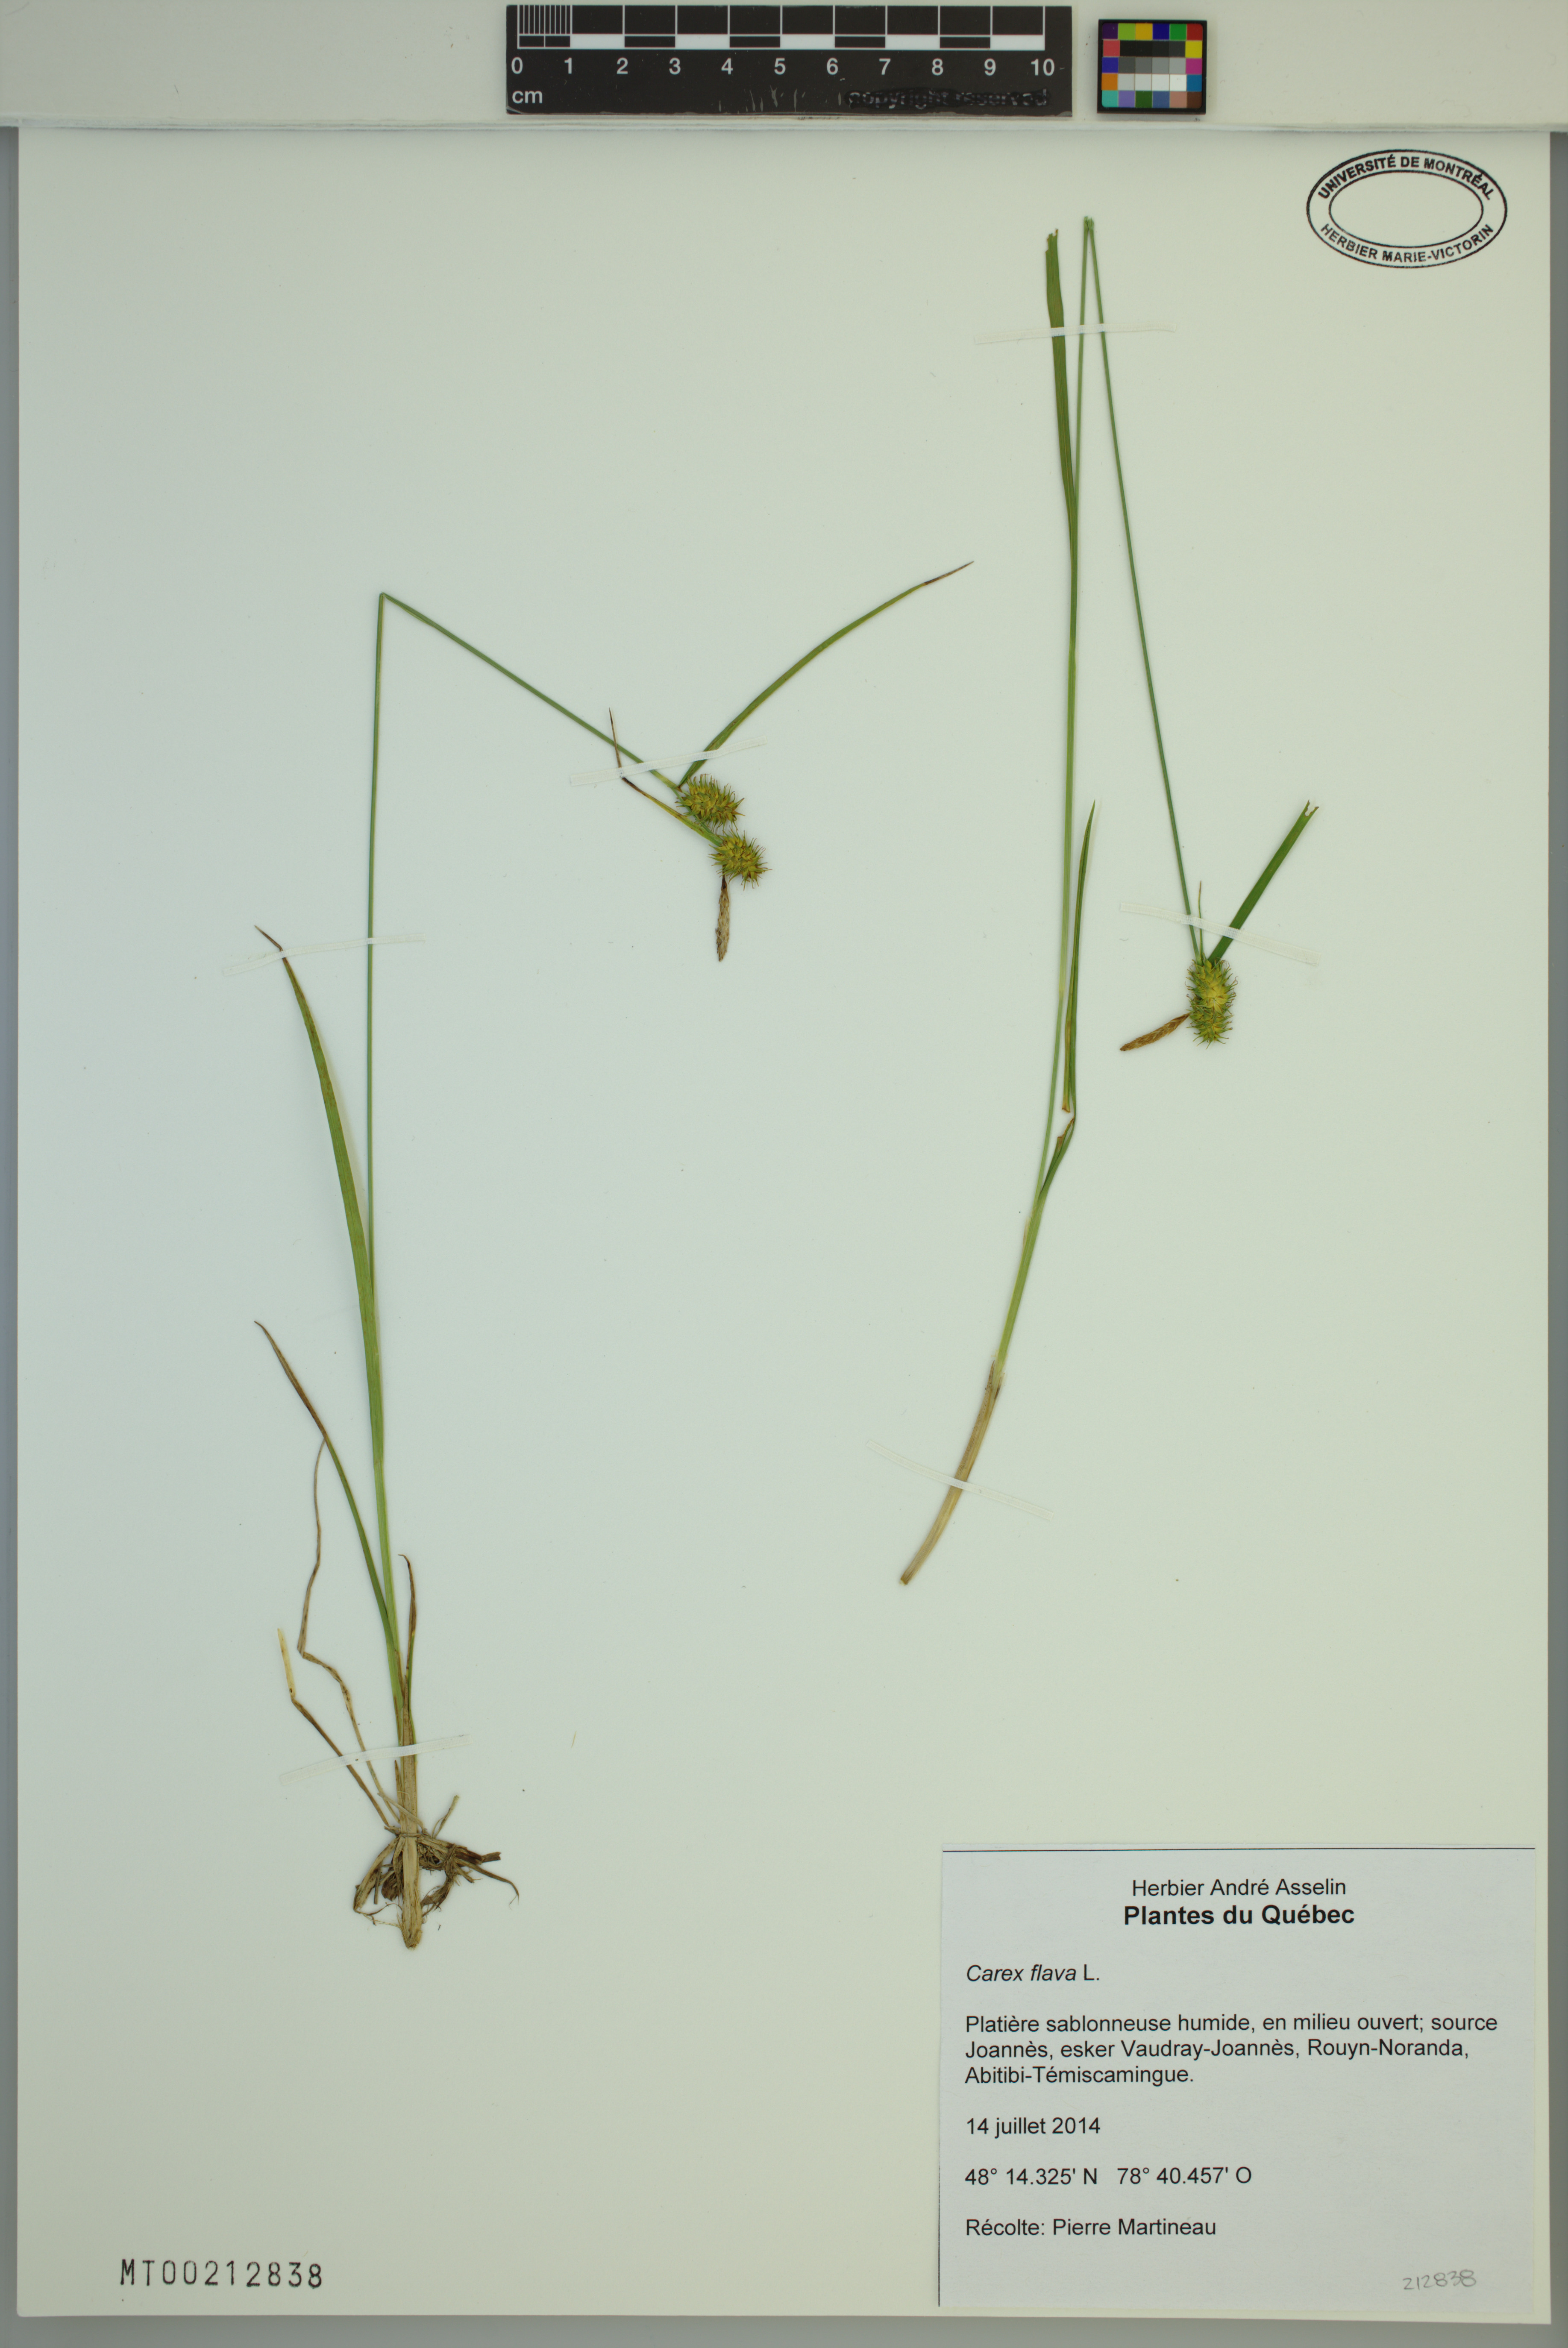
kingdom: Plantae
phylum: Tracheophyta
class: Liliopsida
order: Poales
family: Cyperaceae
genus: Carex
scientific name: Carex flava
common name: Large yellow-sedge
